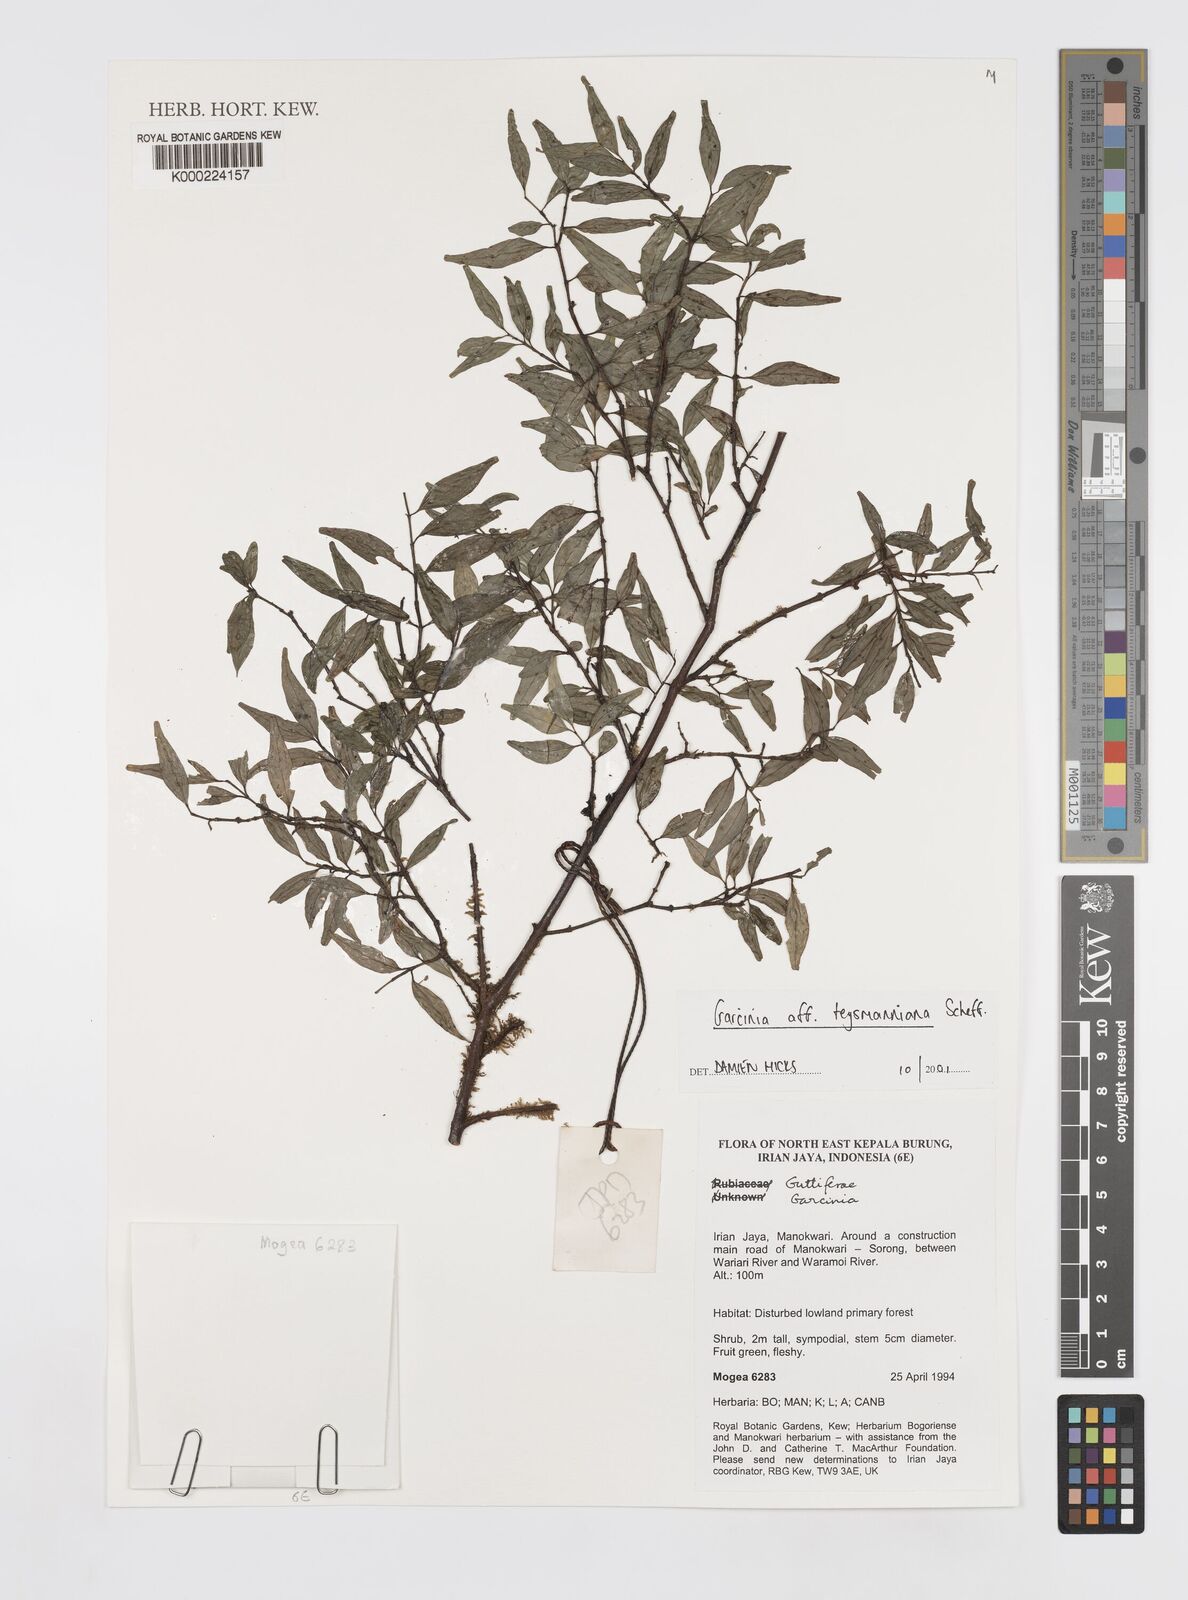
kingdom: Plantae
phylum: Tracheophyta
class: Magnoliopsida
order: Malpighiales
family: Clusiaceae
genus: Garcinia
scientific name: Garcinia teysmanniana
